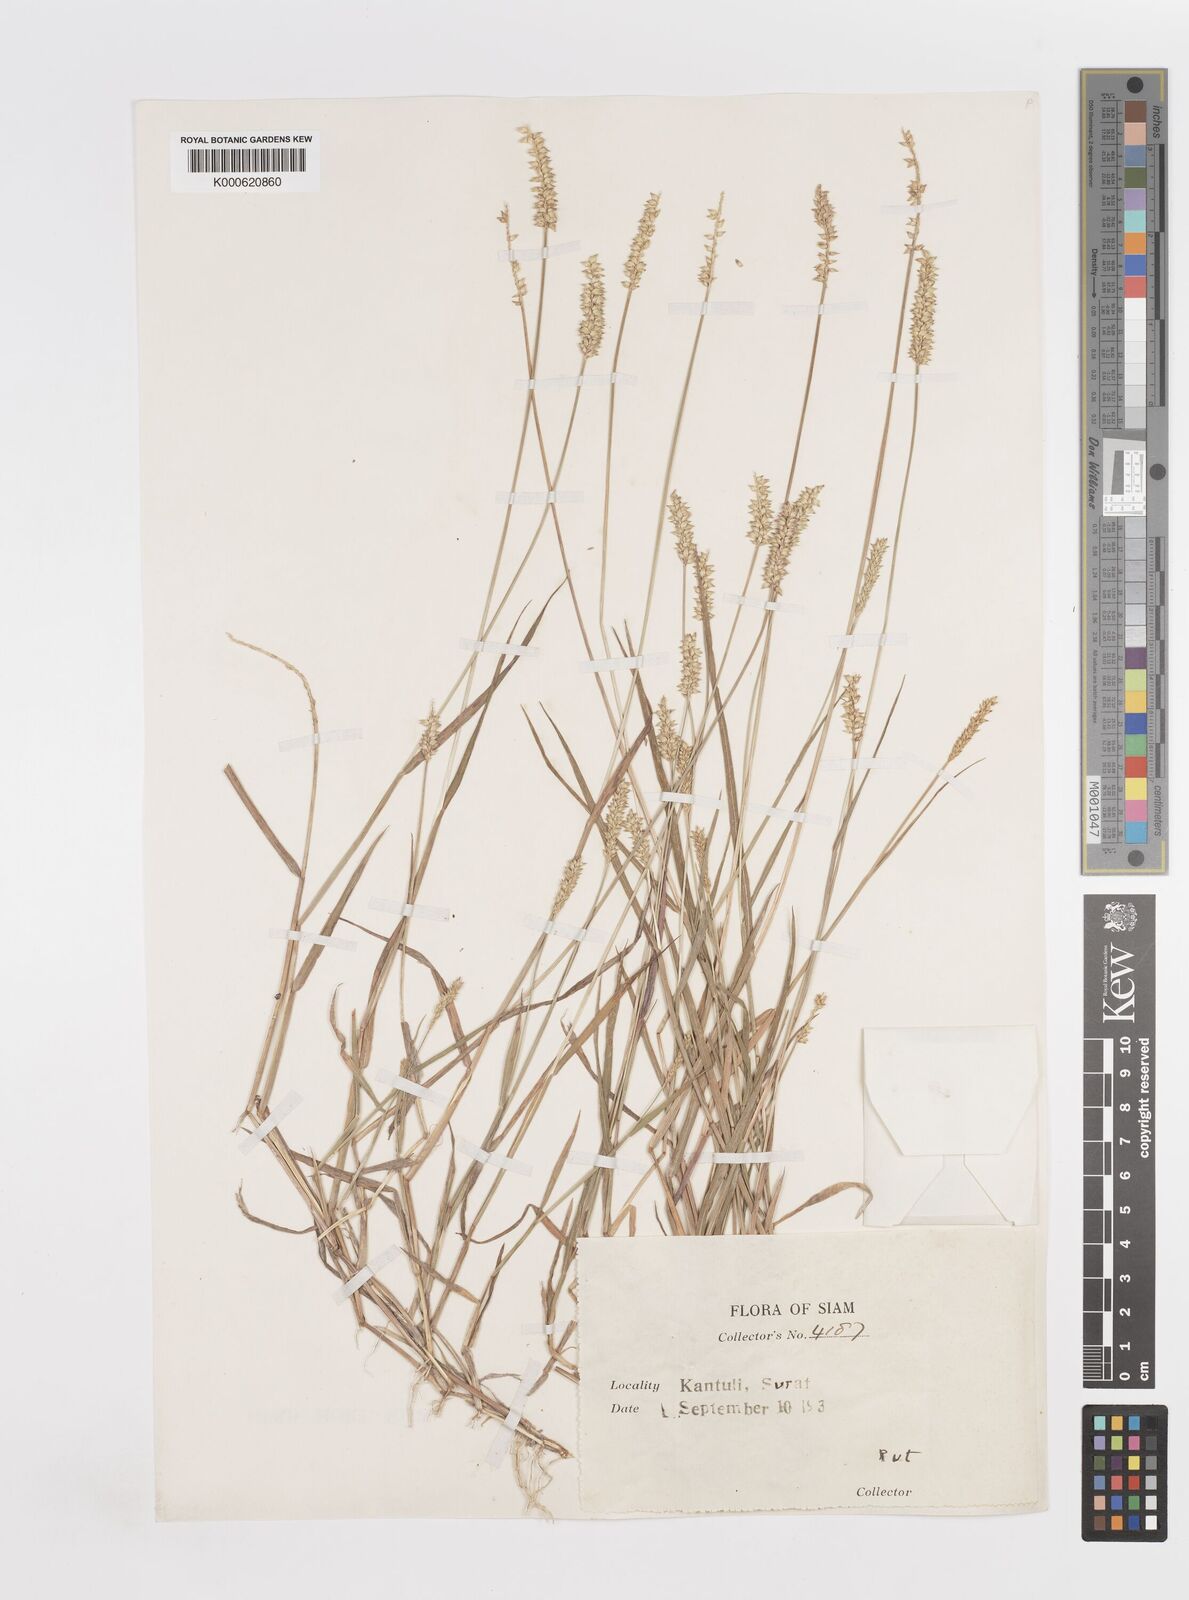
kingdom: Plantae
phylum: Tracheophyta
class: Liliopsida
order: Poales
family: Poaceae
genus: Sacciolepis
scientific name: Sacciolepis indica
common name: Glenwoodgrass
